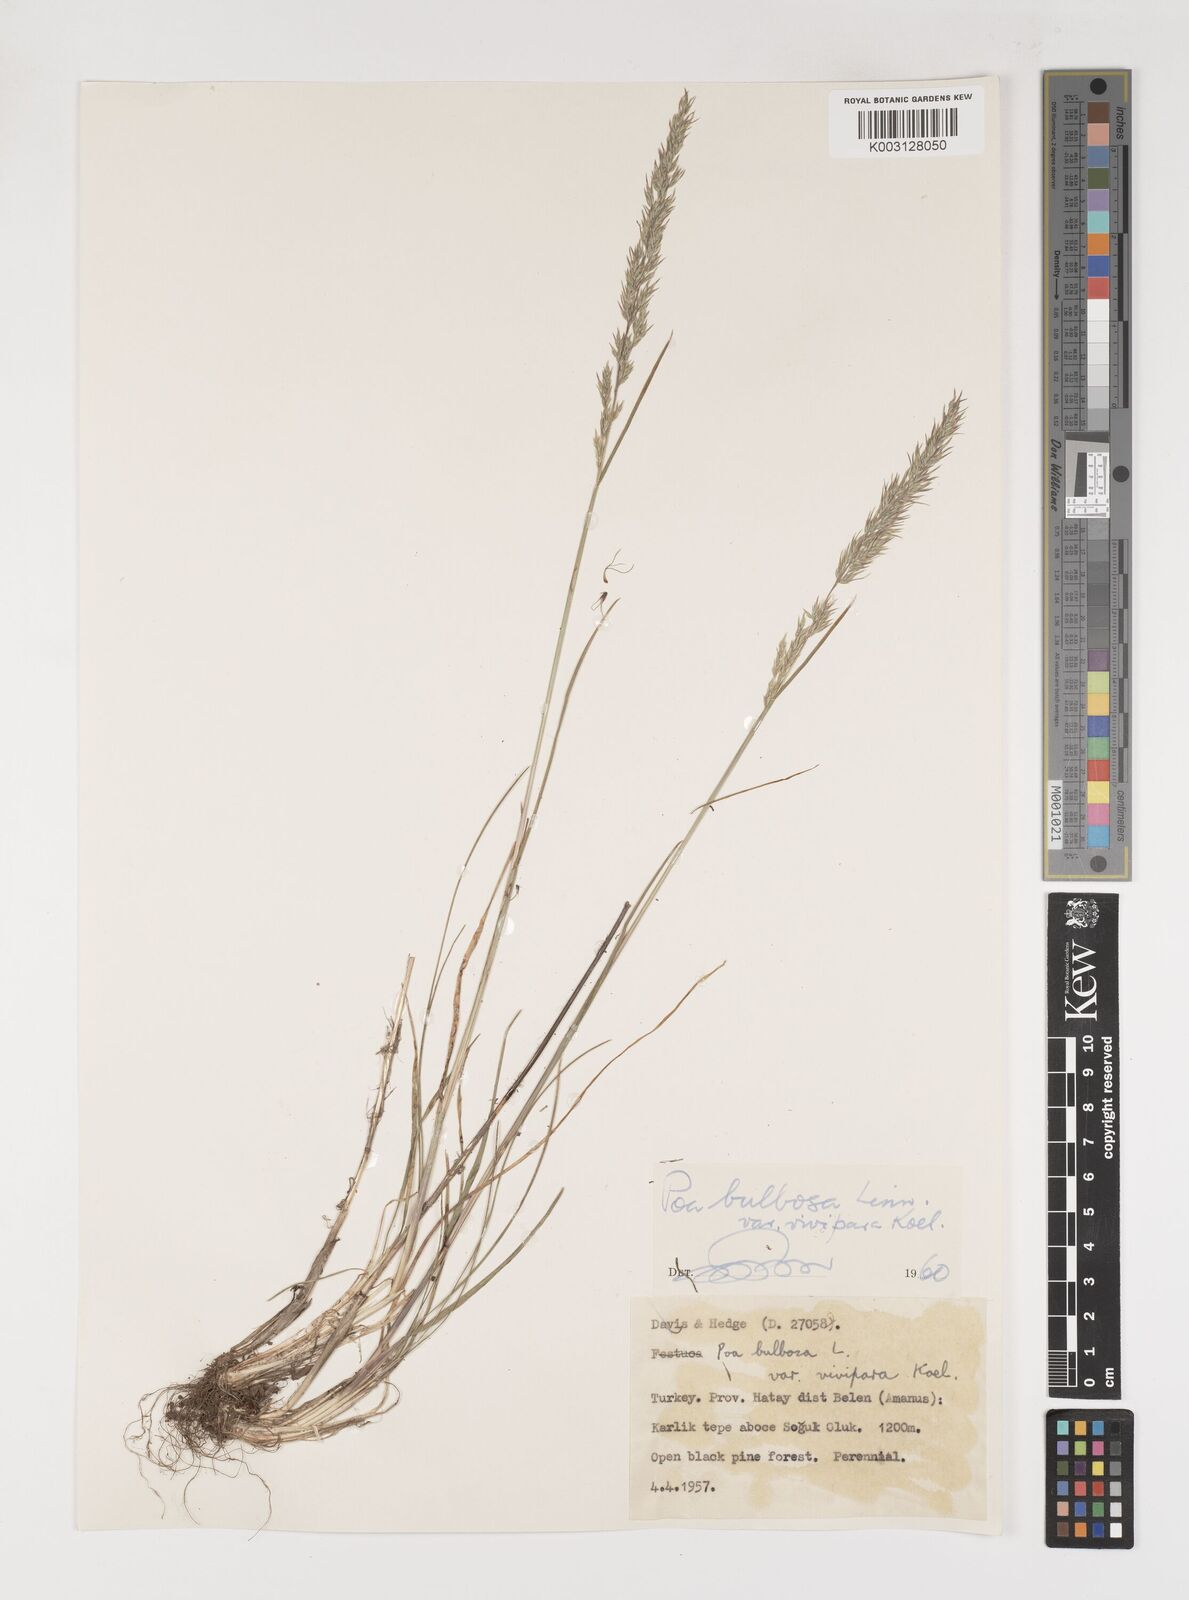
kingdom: Plantae
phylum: Tracheophyta
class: Liliopsida
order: Poales
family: Poaceae
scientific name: Poaceae
